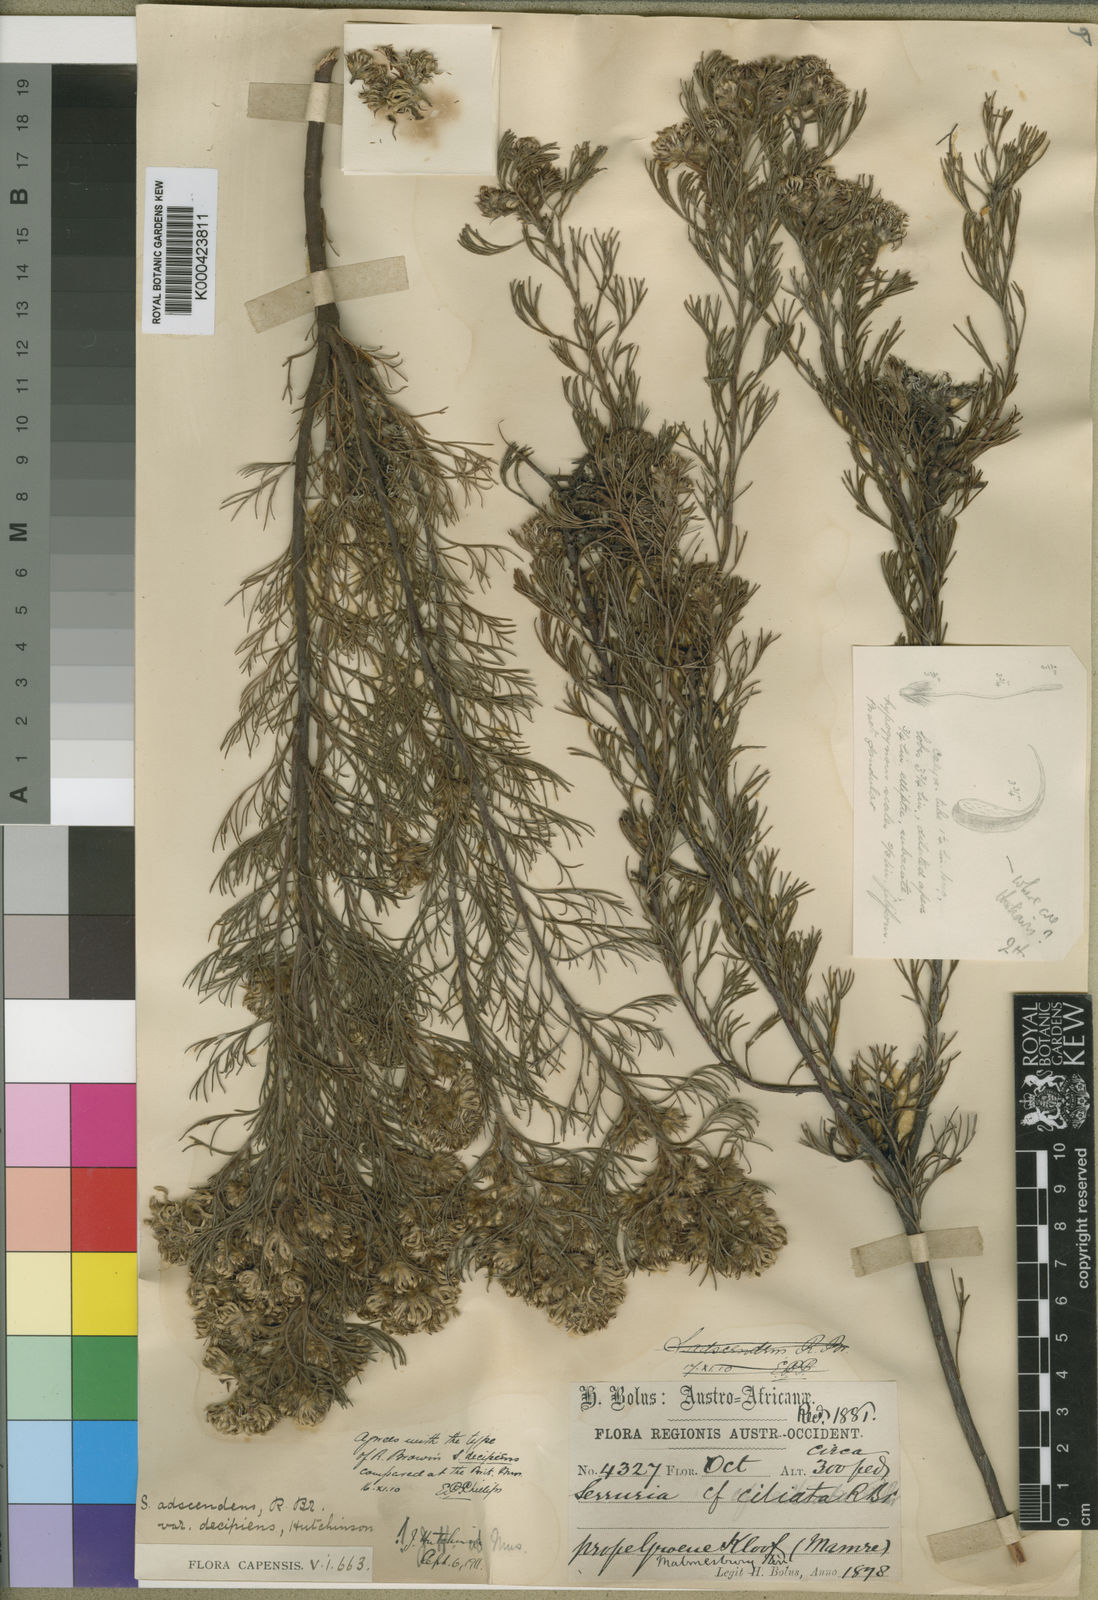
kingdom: Plantae
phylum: Tracheophyta
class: Magnoliopsida
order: Proteales
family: Proteaceae
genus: Serruria
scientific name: Serruria
